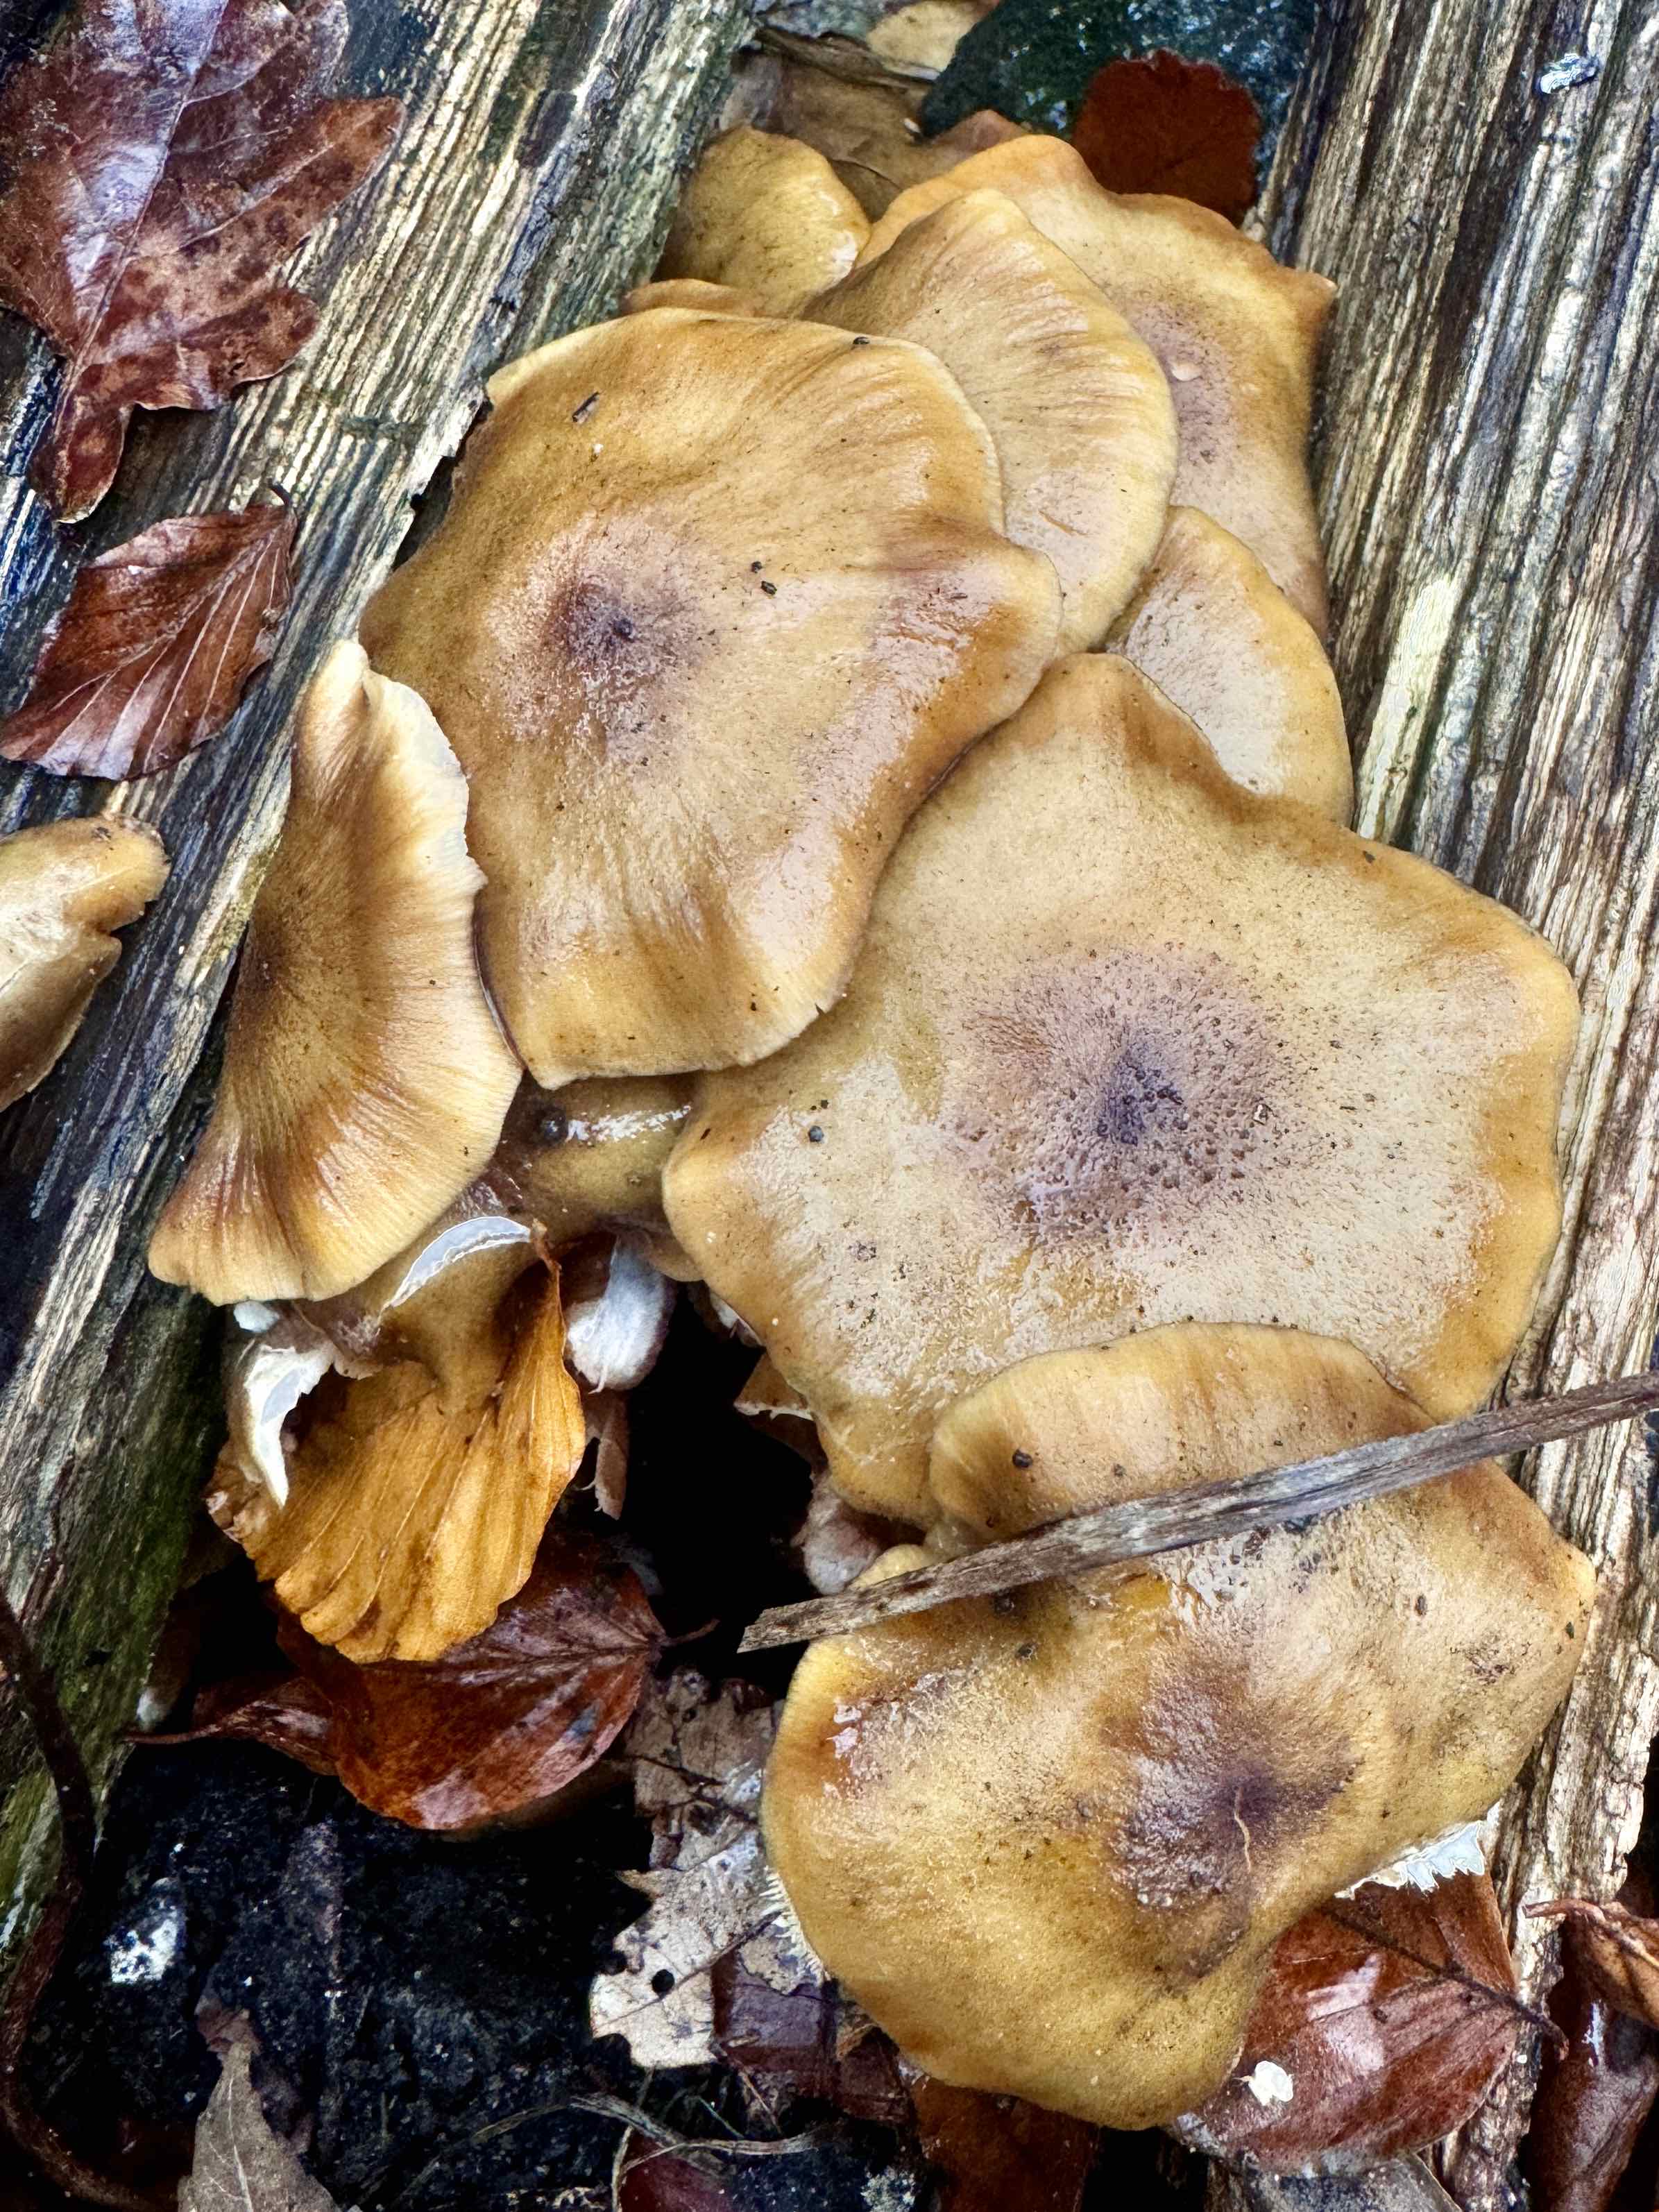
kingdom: Fungi
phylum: Basidiomycota
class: Agaricomycetes
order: Agaricales
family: Physalacriaceae
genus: Armillaria
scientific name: Armillaria mellea
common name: ægte honningsvamp
